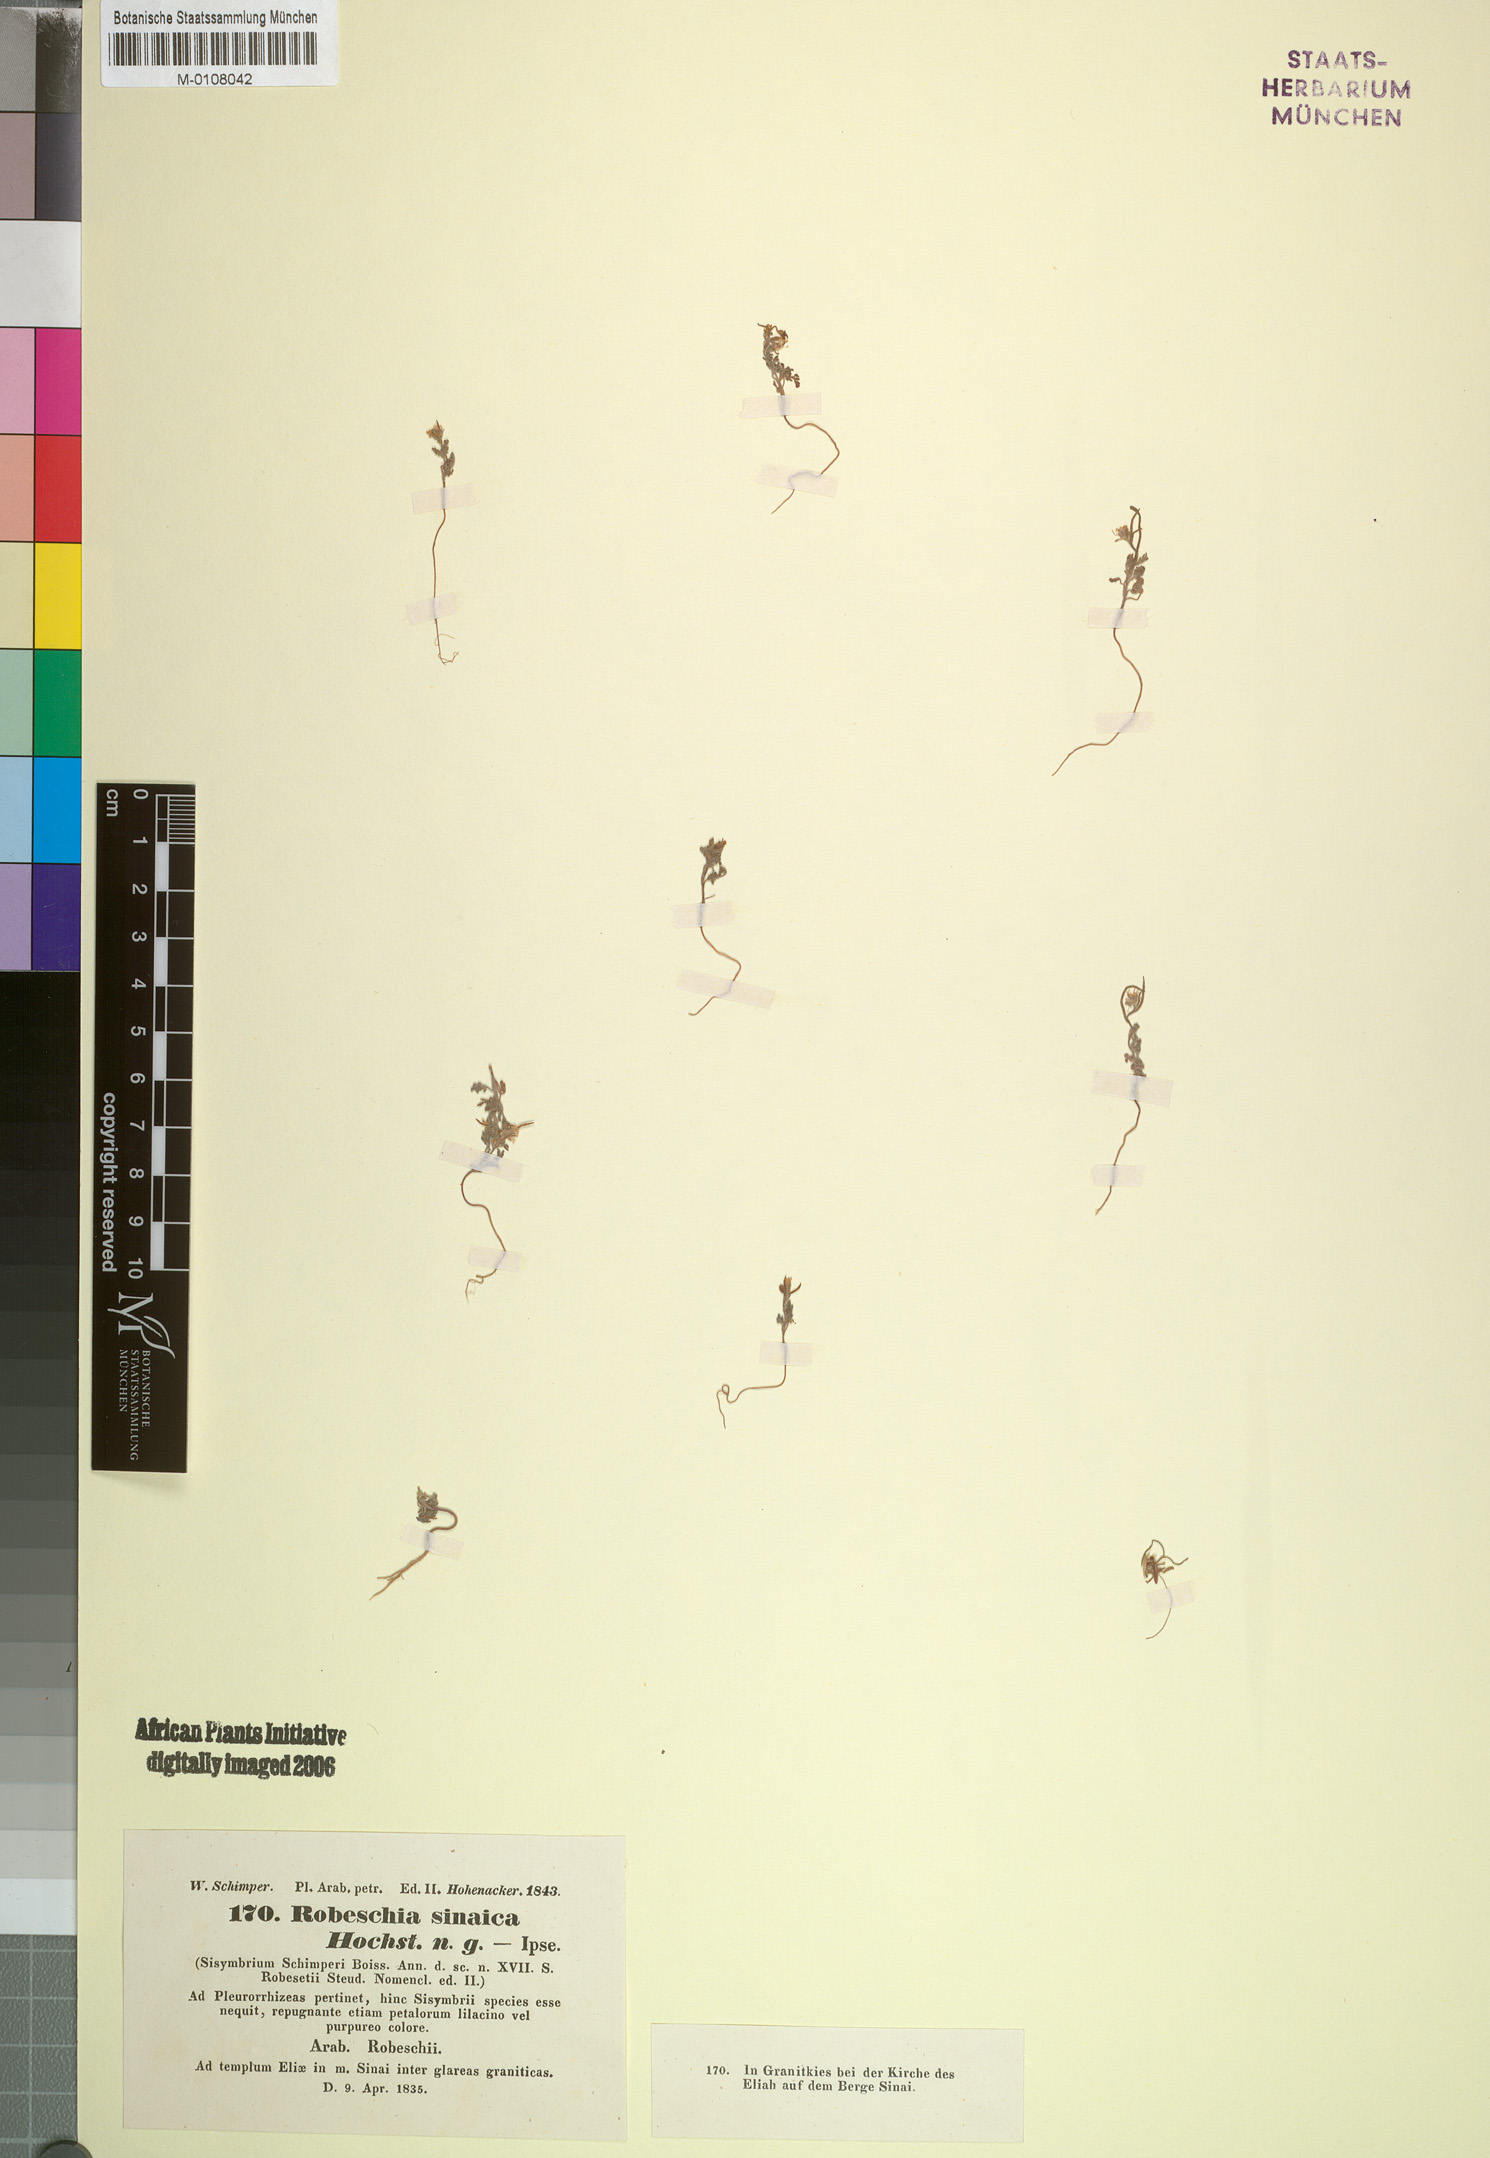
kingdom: Plantae
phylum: Tracheophyta
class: Magnoliopsida
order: Brassicales
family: Brassicaceae
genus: Robeschia
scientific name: Robeschia schimperi
